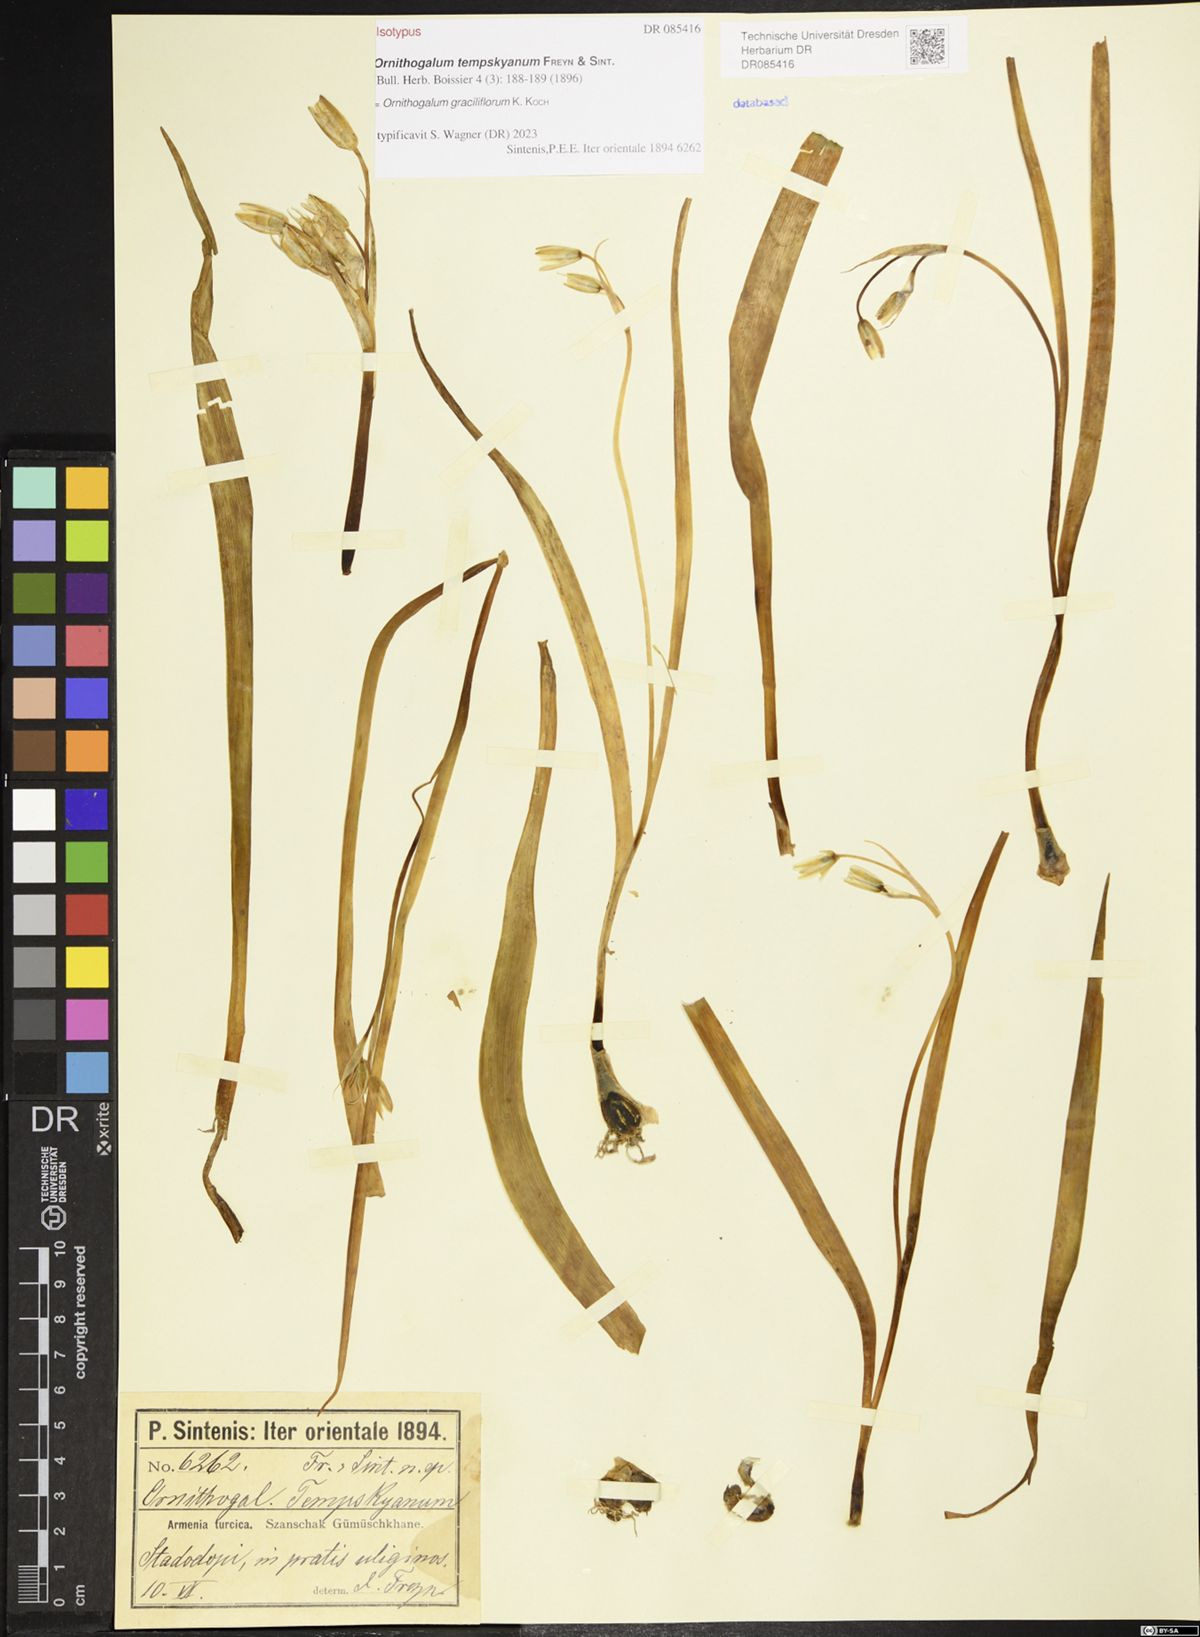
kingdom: Plantae
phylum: Tracheophyta
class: Liliopsida
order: Asparagales
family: Asparagaceae
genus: Ornithogalum
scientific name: Ornithogalum graciliflorum
